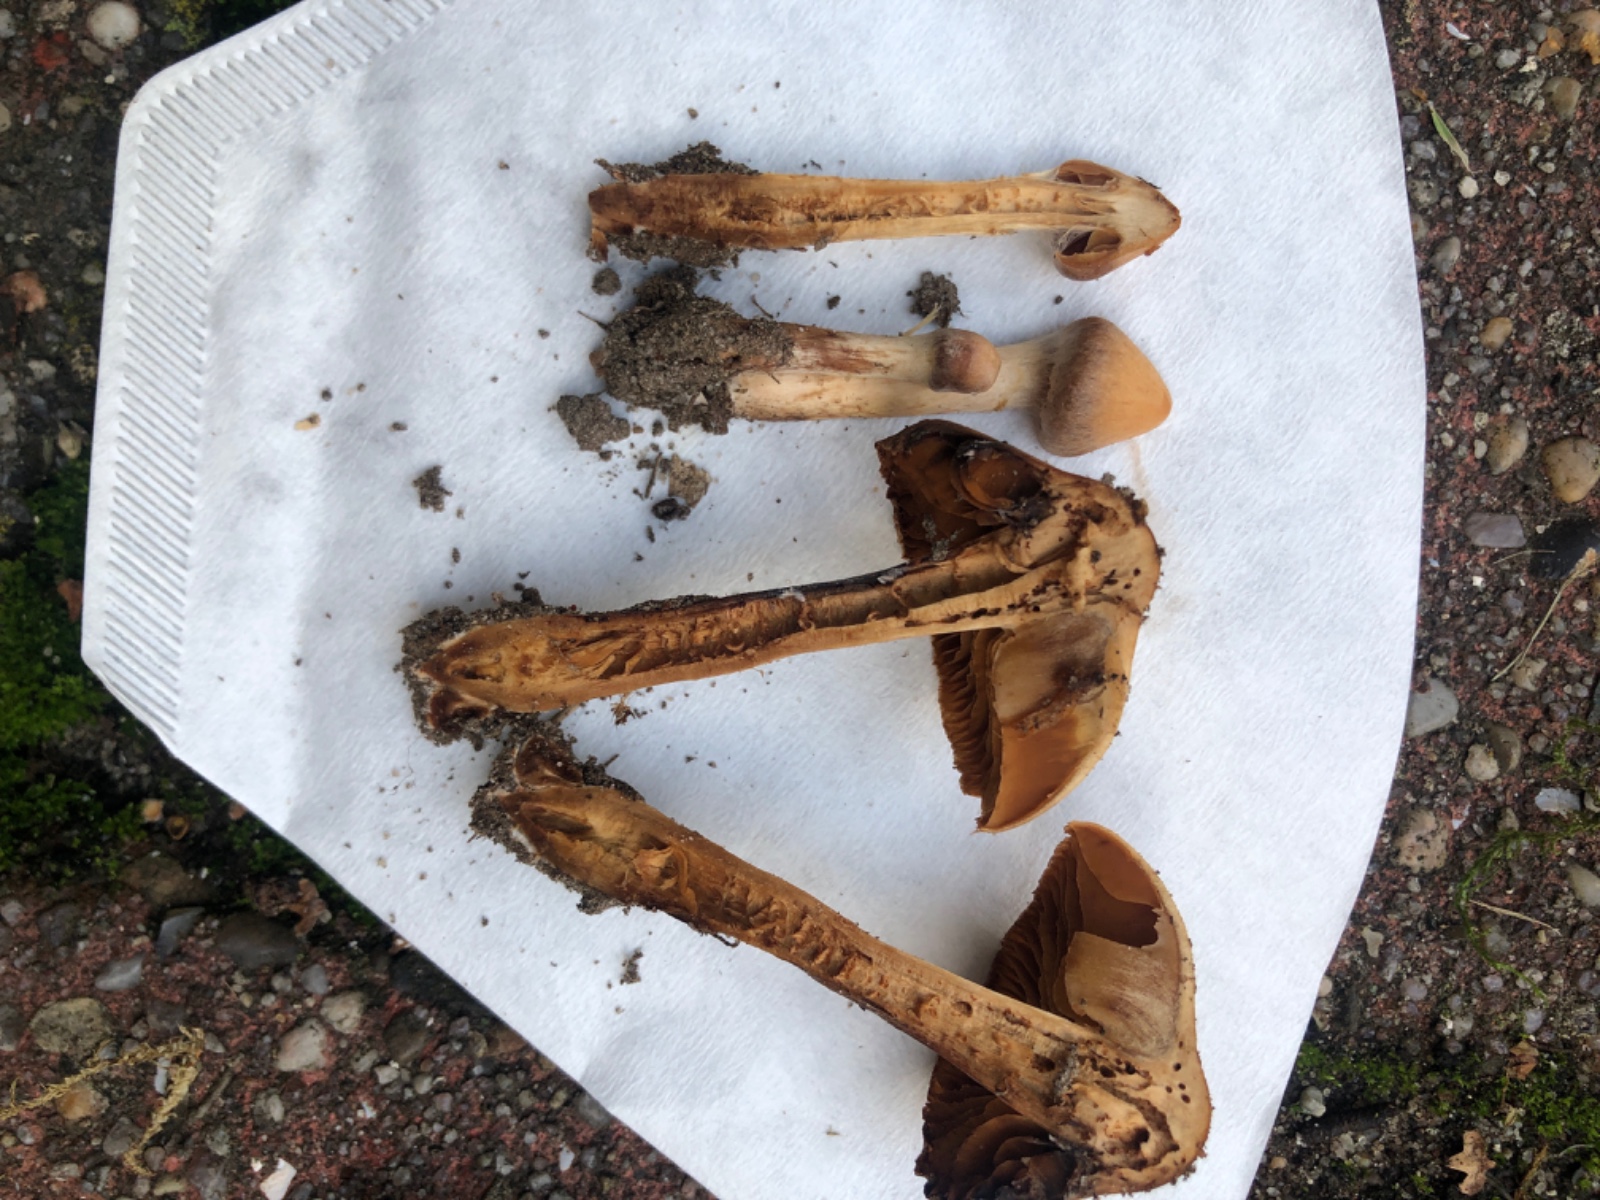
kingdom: Fungi
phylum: Basidiomycota
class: Agaricomycetes
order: Agaricales
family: Cortinariaceae
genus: Cortinarius
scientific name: Cortinarius hinnuleus
